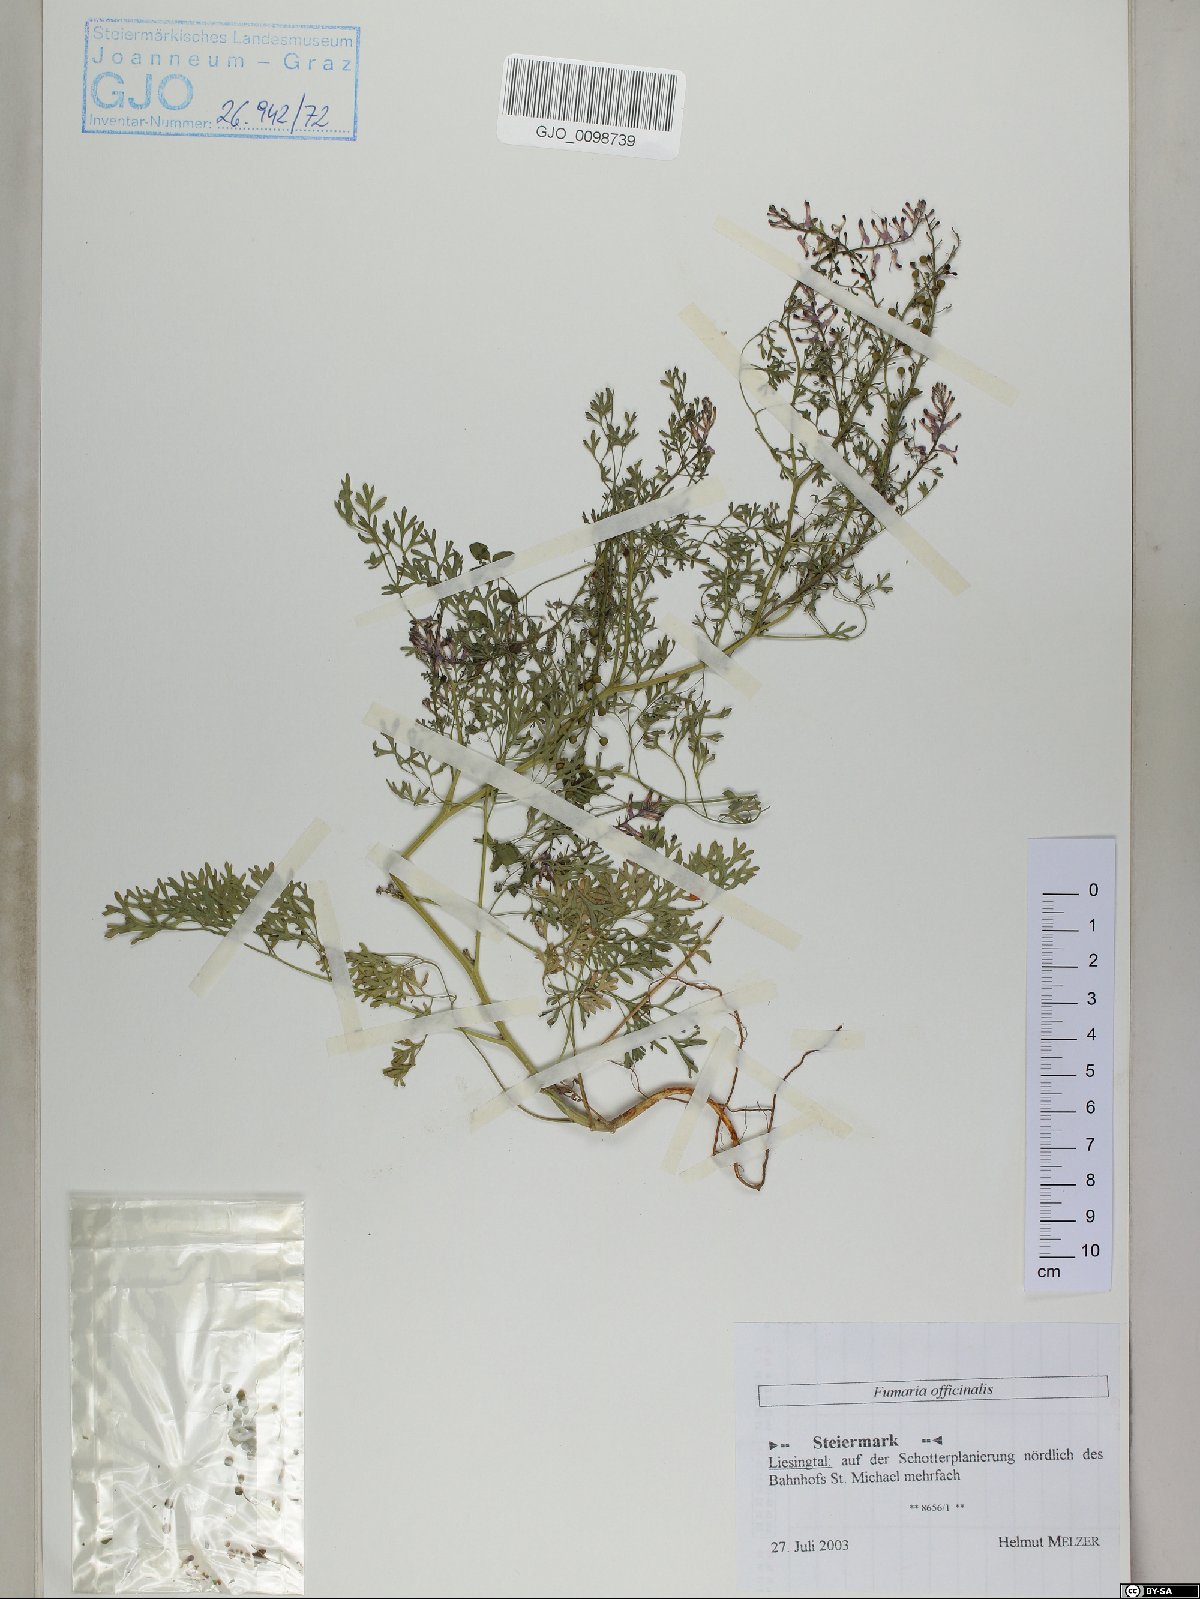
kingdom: Plantae
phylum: Tracheophyta
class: Magnoliopsida
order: Ranunculales
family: Papaveraceae
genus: Fumaria
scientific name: Fumaria officinalis
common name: Common fumitory
